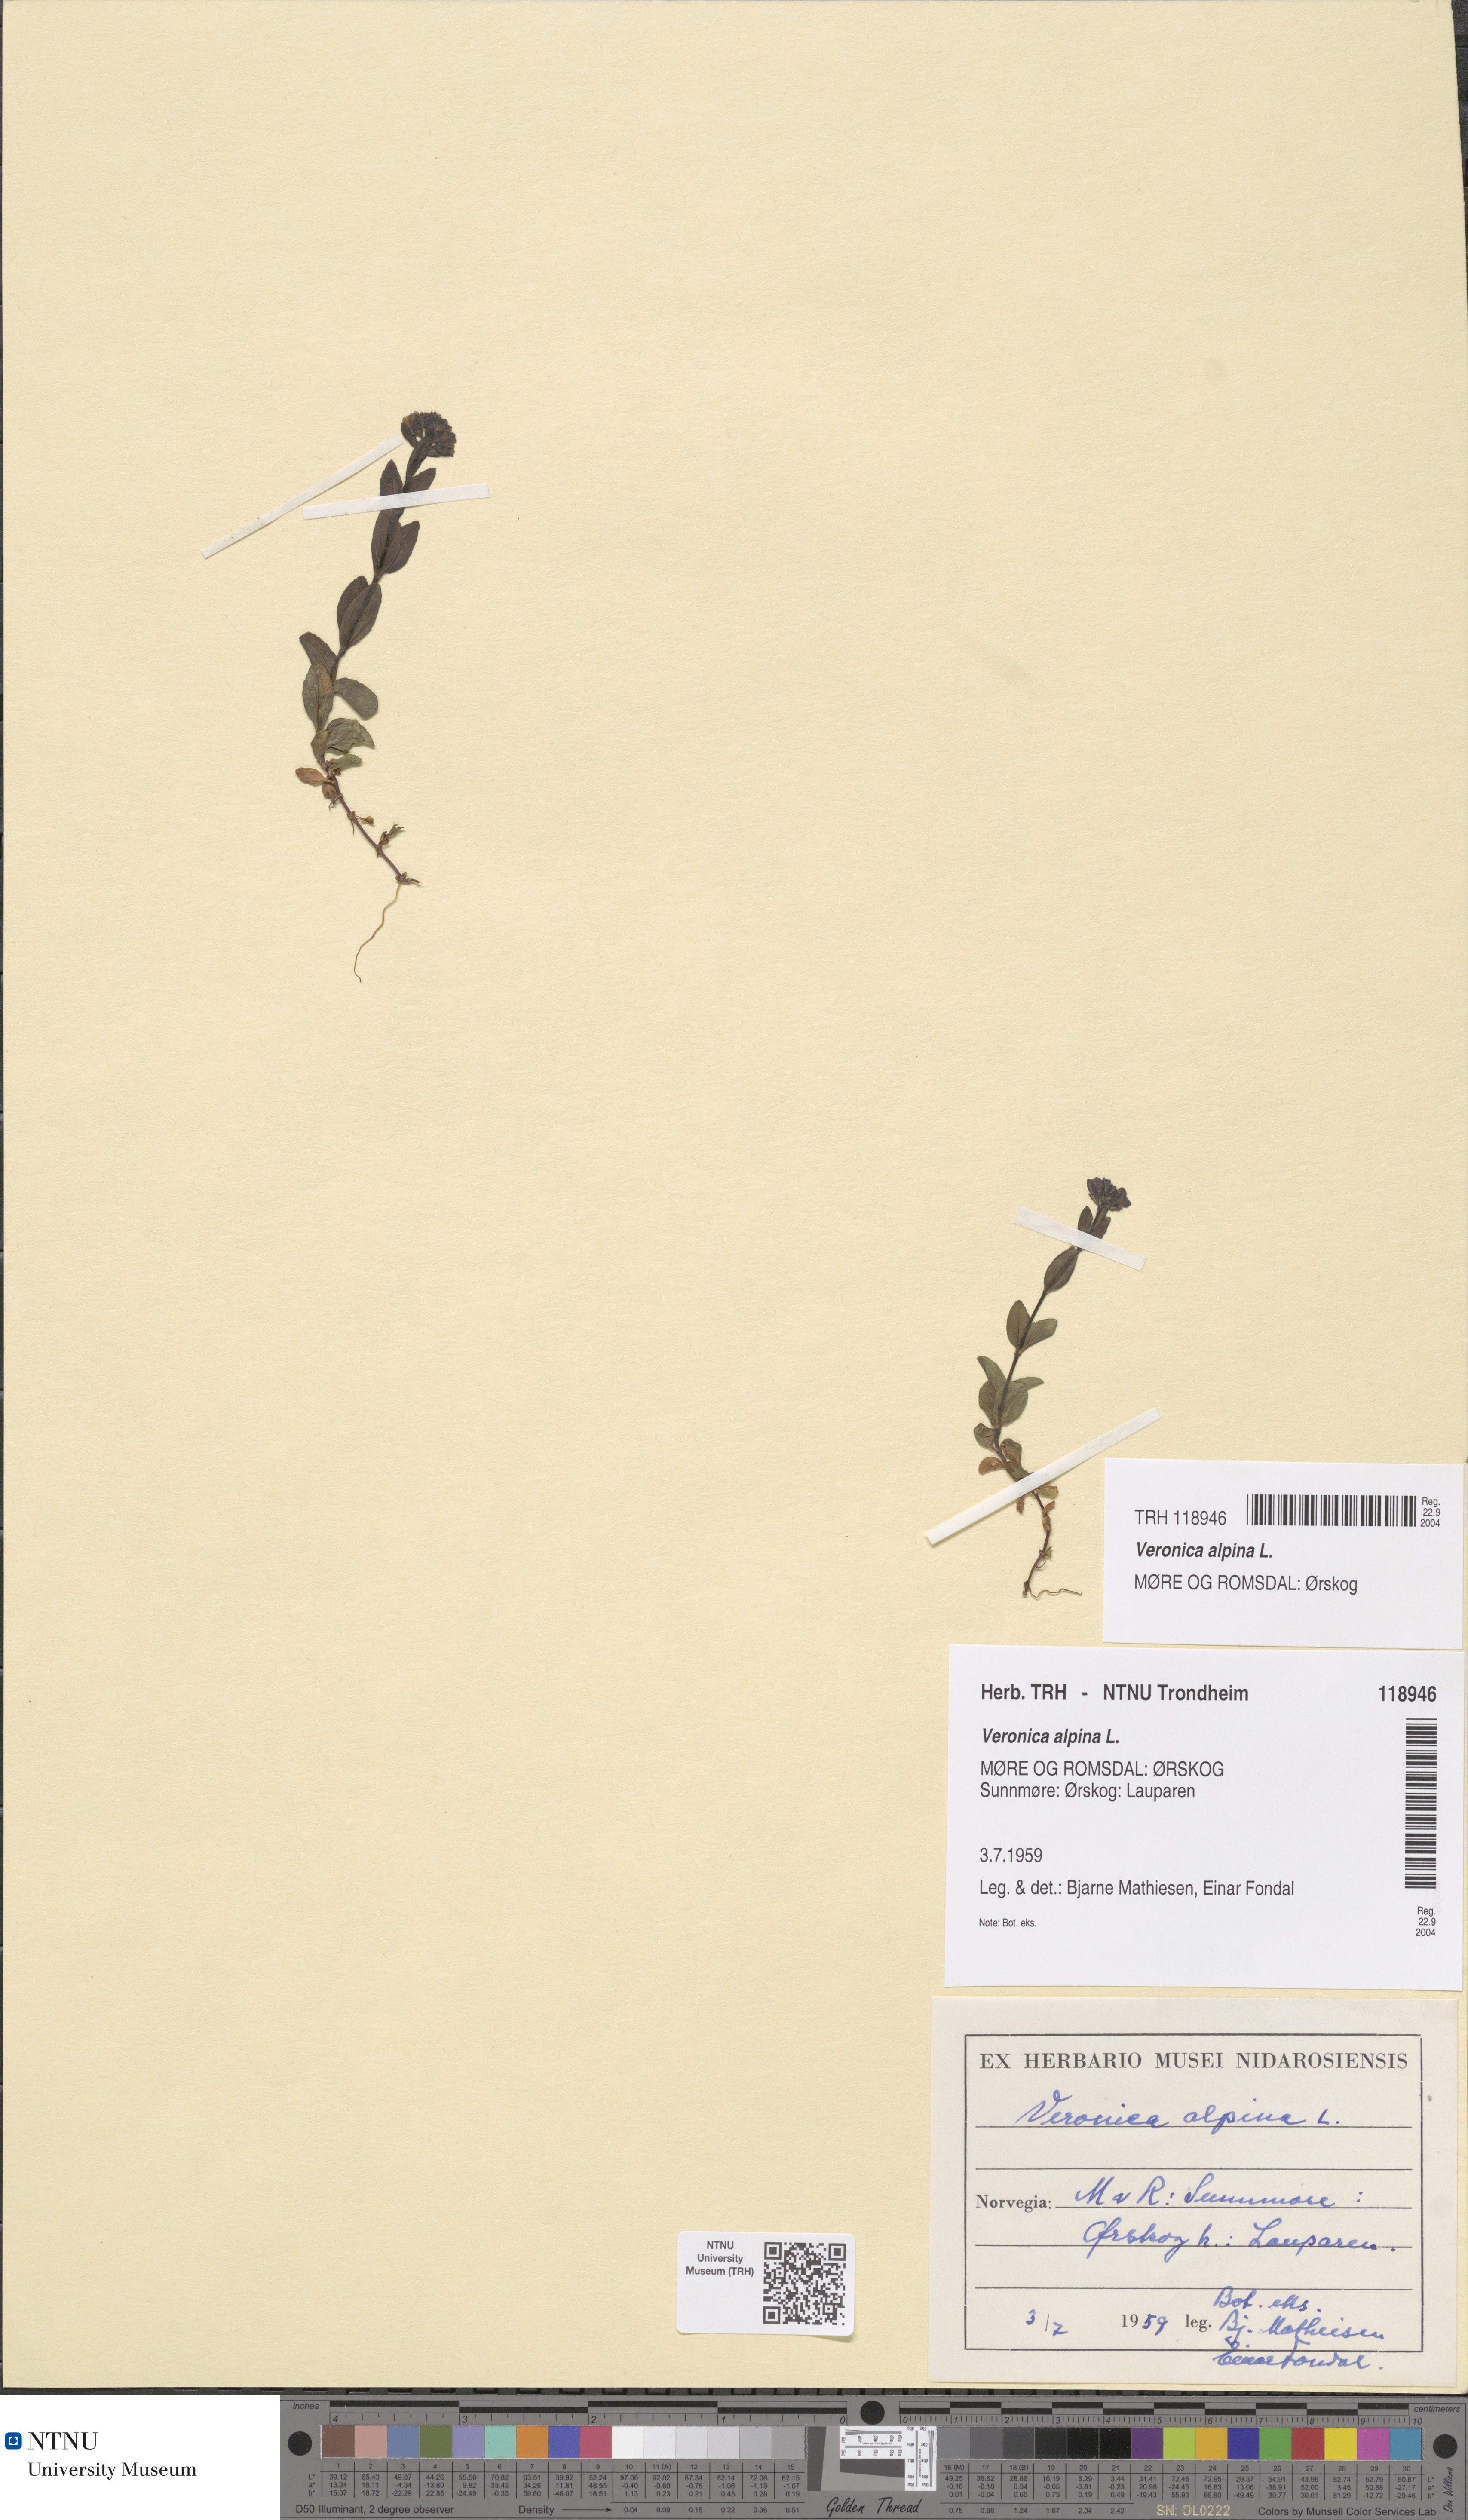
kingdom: Plantae
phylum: Tracheophyta
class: Magnoliopsida
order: Lamiales
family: Plantaginaceae
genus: Veronica
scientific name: Veronica alpina
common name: Alpine speedwell
